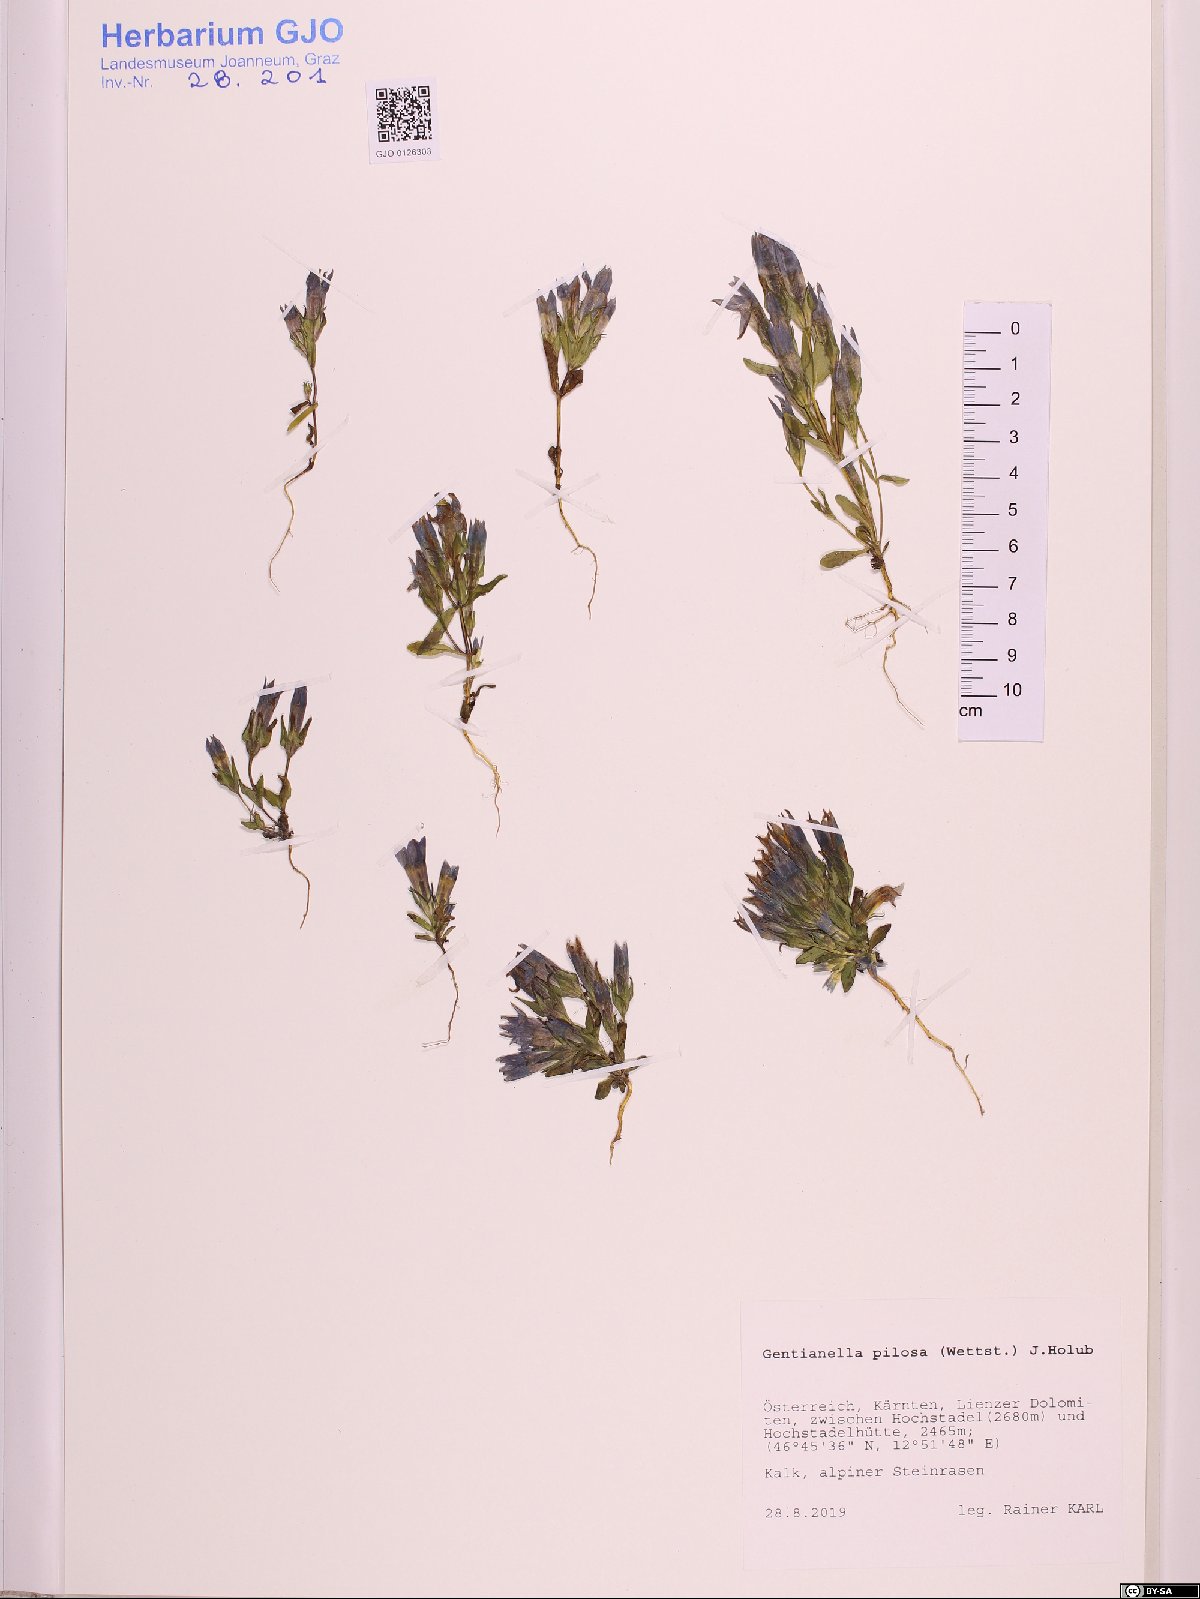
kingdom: Plantae
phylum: Tracheophyta
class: Magnoliopsida
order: Gentianales
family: Gentianaceae
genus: Gentianella
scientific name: Gentianella pilosa
